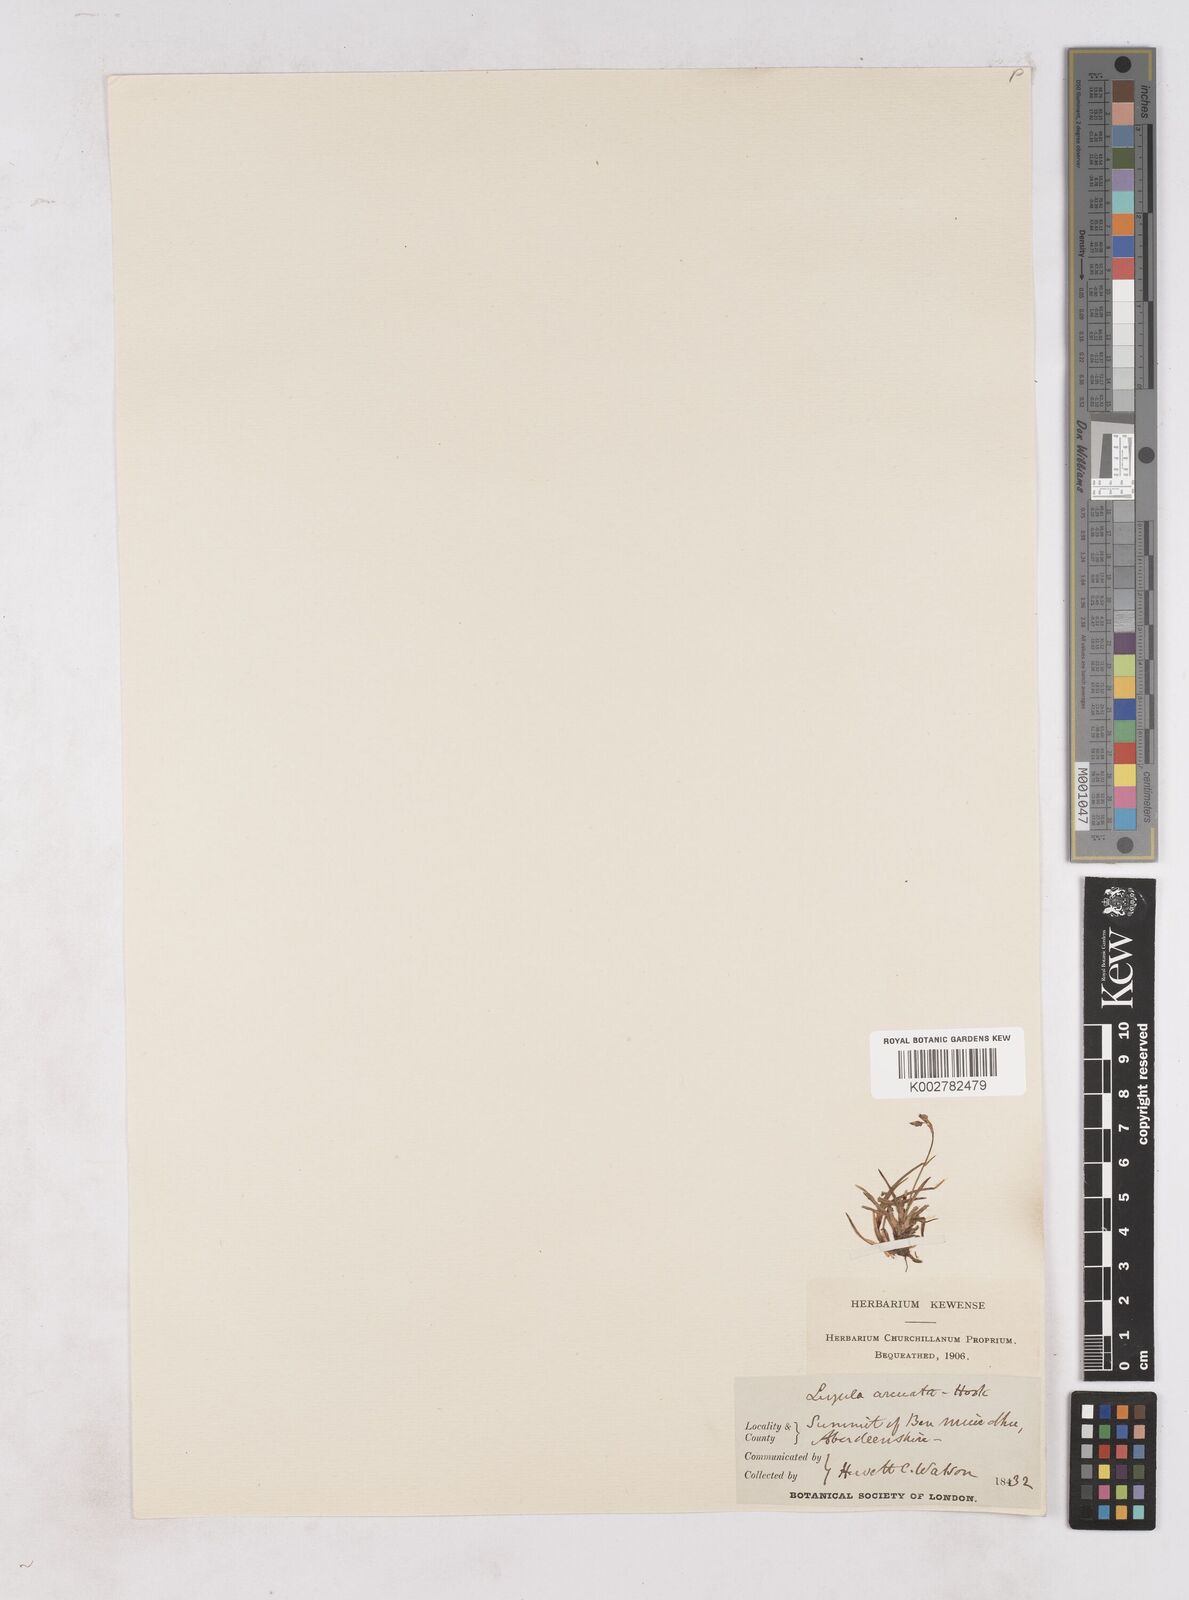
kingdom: Plantae
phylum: Tracheophyta
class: Liliopsida
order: Poales
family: Juncaceae
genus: Luzula
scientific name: Luzula arcuata
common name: Curved wood-rush
